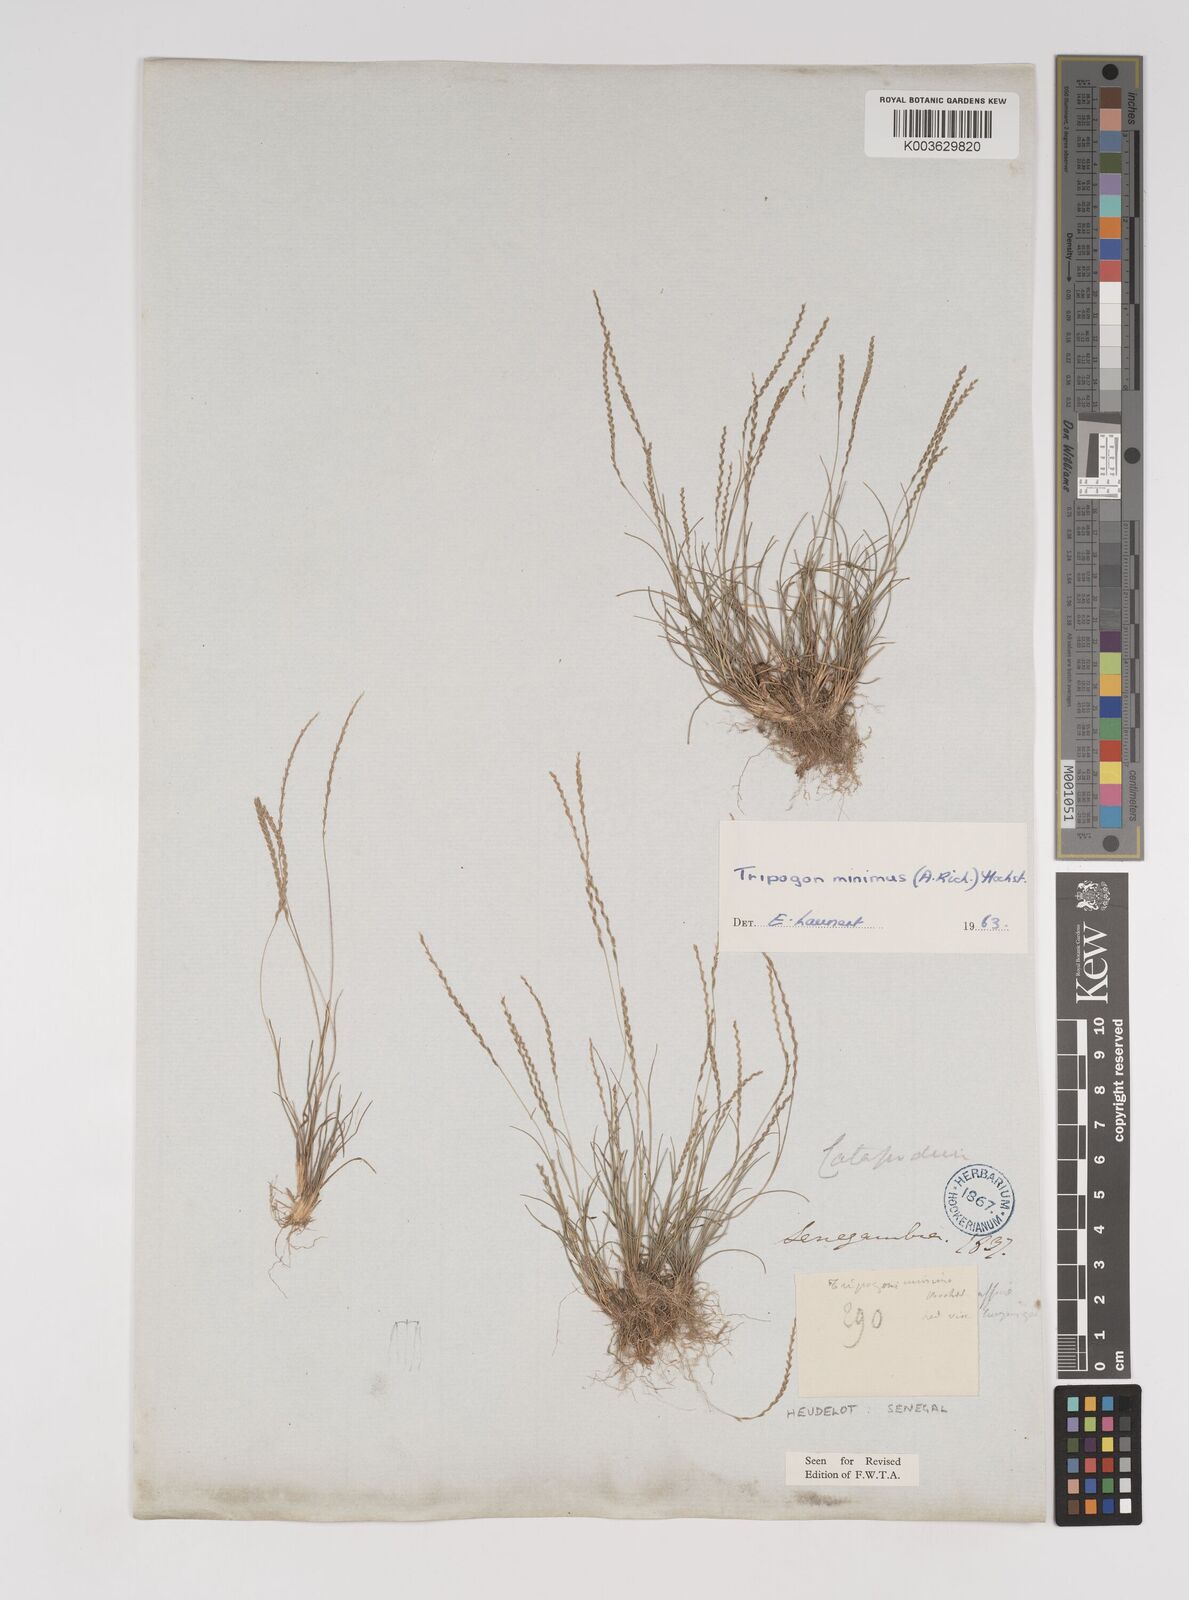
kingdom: Plantae
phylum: Tracheophyta
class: Liliopsida
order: Poales
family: Poaceae
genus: Tripogonella
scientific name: Tripogonella minima
